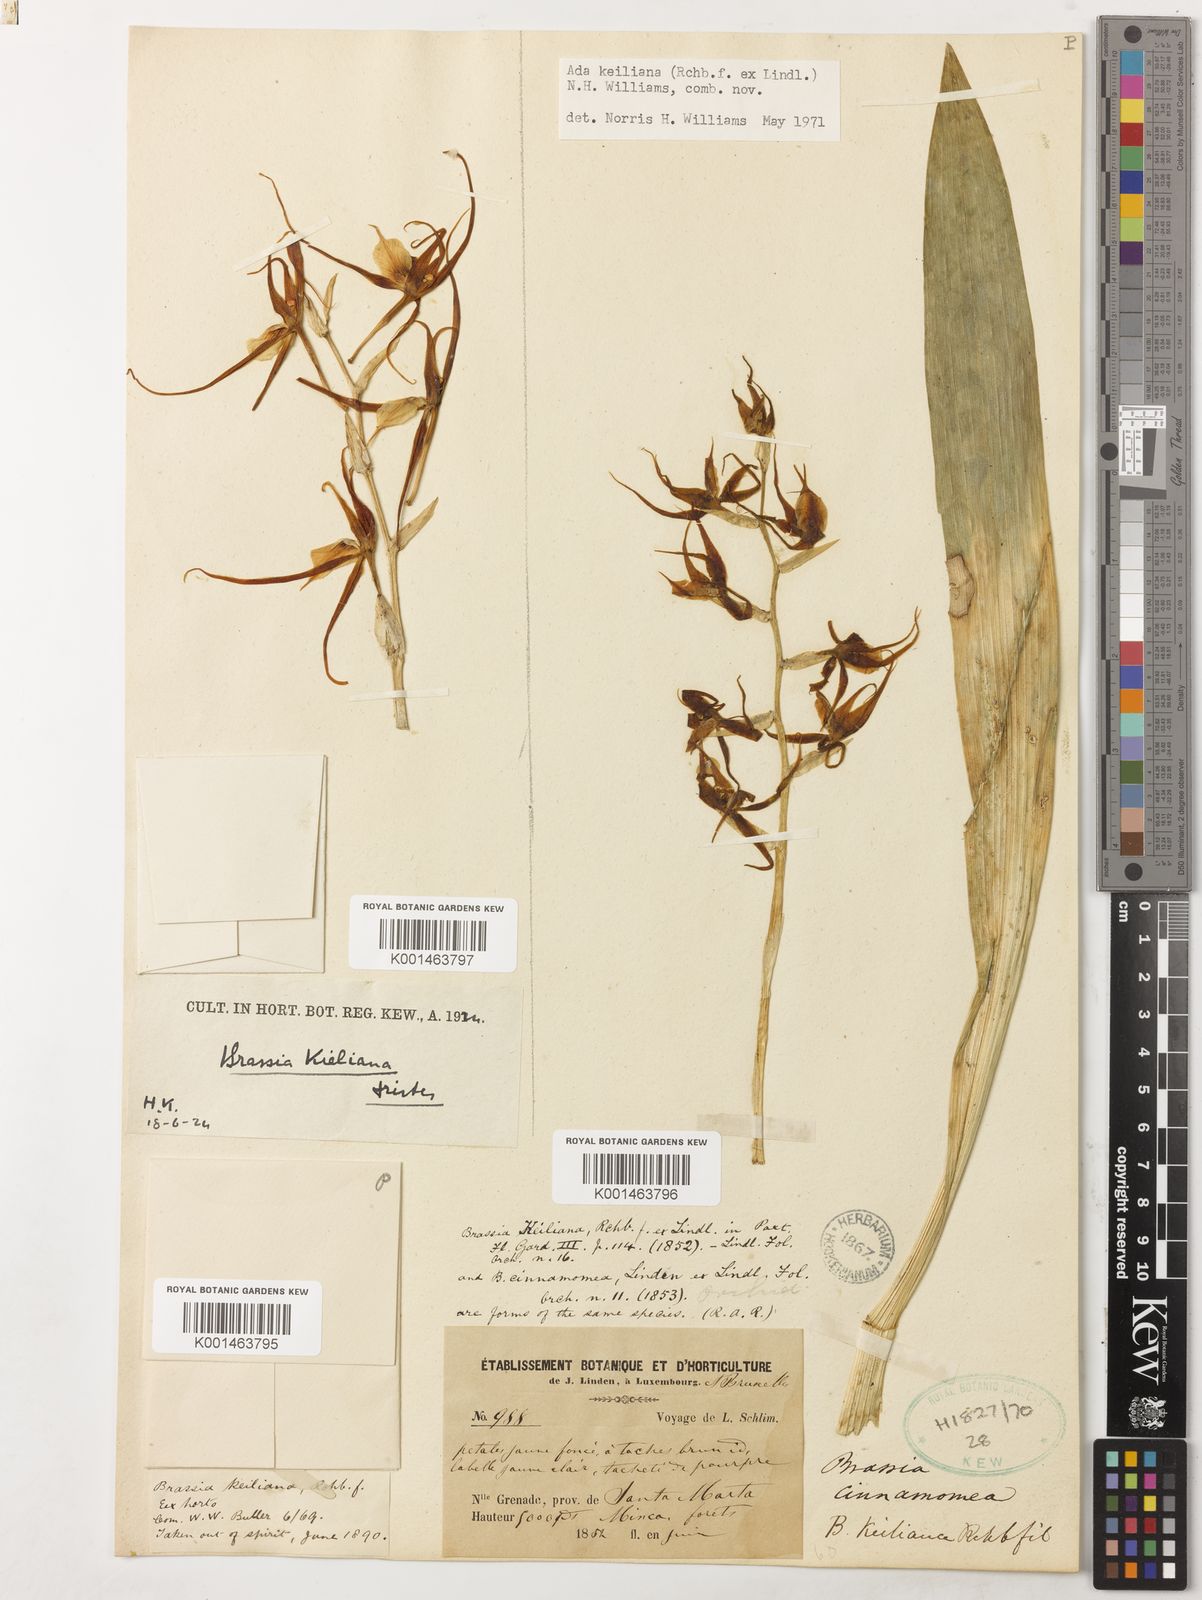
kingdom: Plantae
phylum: Tracheophyta
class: Liliopsida
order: Asparagales
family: Orchidaceae
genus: Brassia
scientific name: Brassia keiliana
